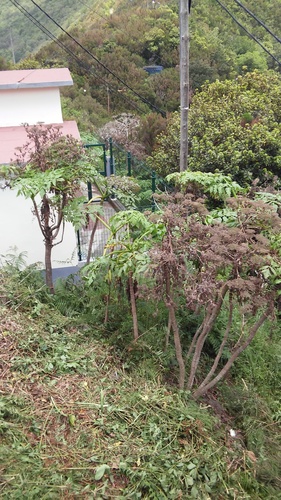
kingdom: Plantae
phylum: Tracheophyta
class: Magnoliopsida
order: Apiales
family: Apiaceae
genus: Daucus
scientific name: Daucus decipiens
